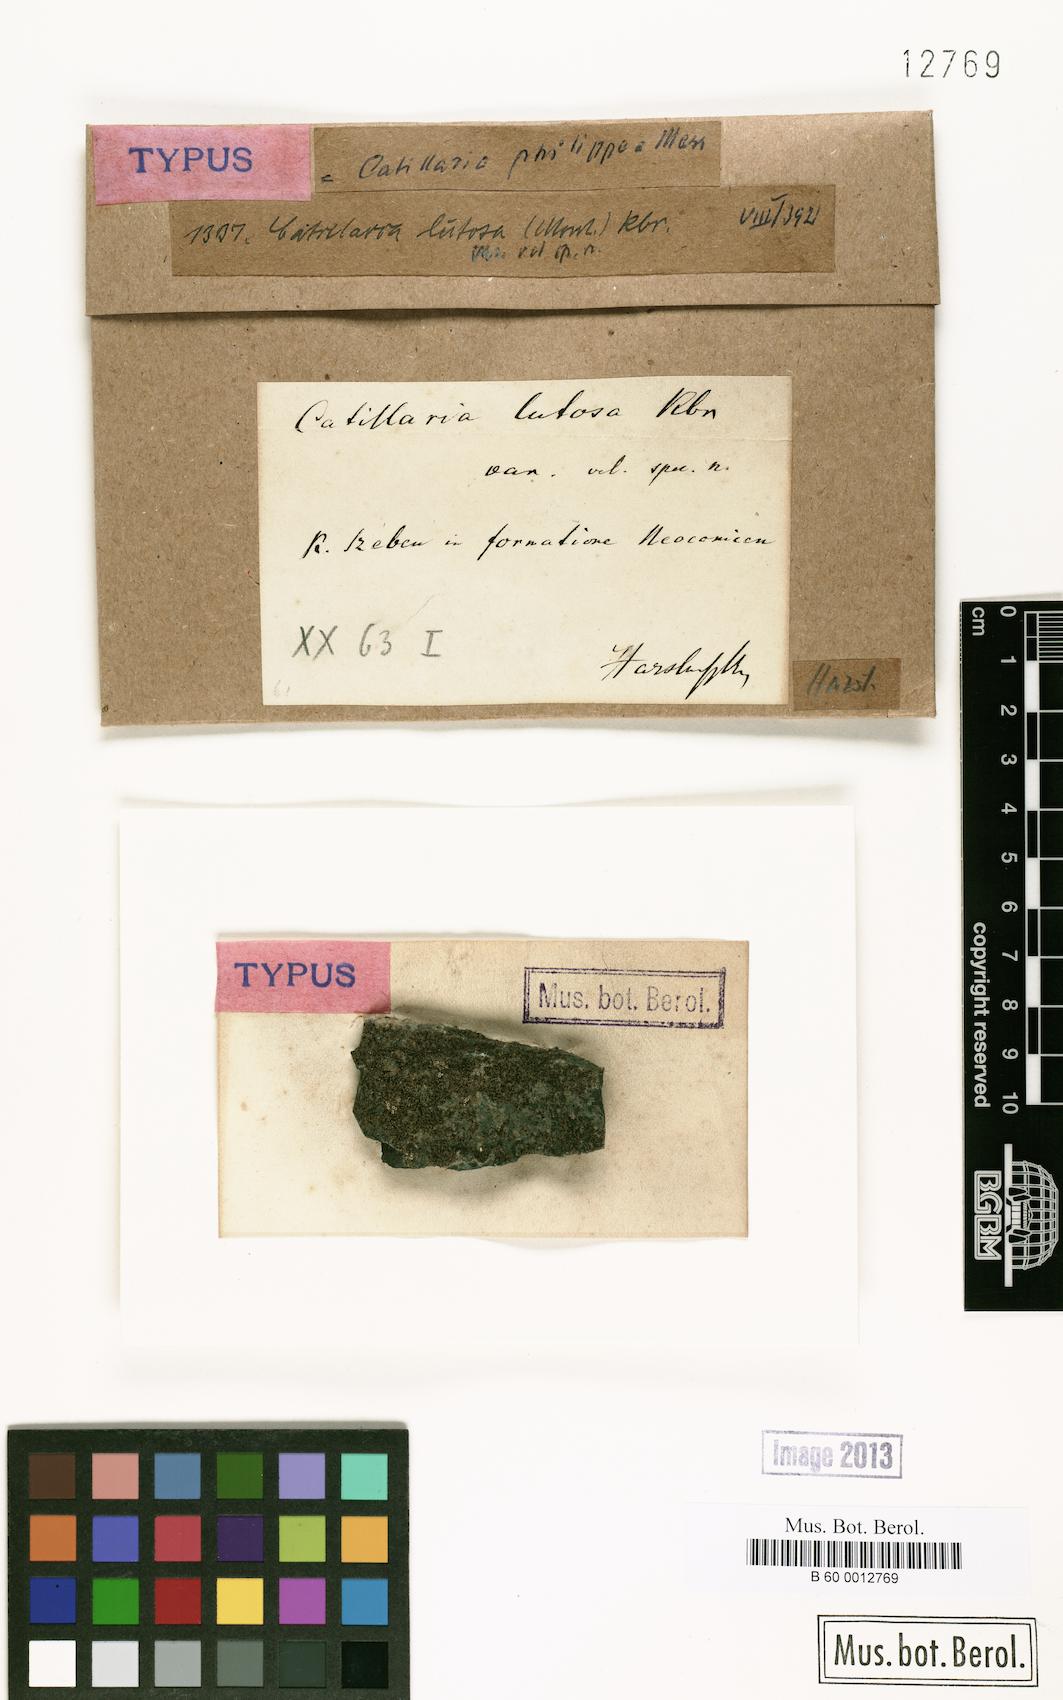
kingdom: Fungi
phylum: Ascomycota
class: Lecanoromycetes
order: Lecanorales
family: Ramalinaceae
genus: Kiliasia
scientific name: Kiliasia philippea
